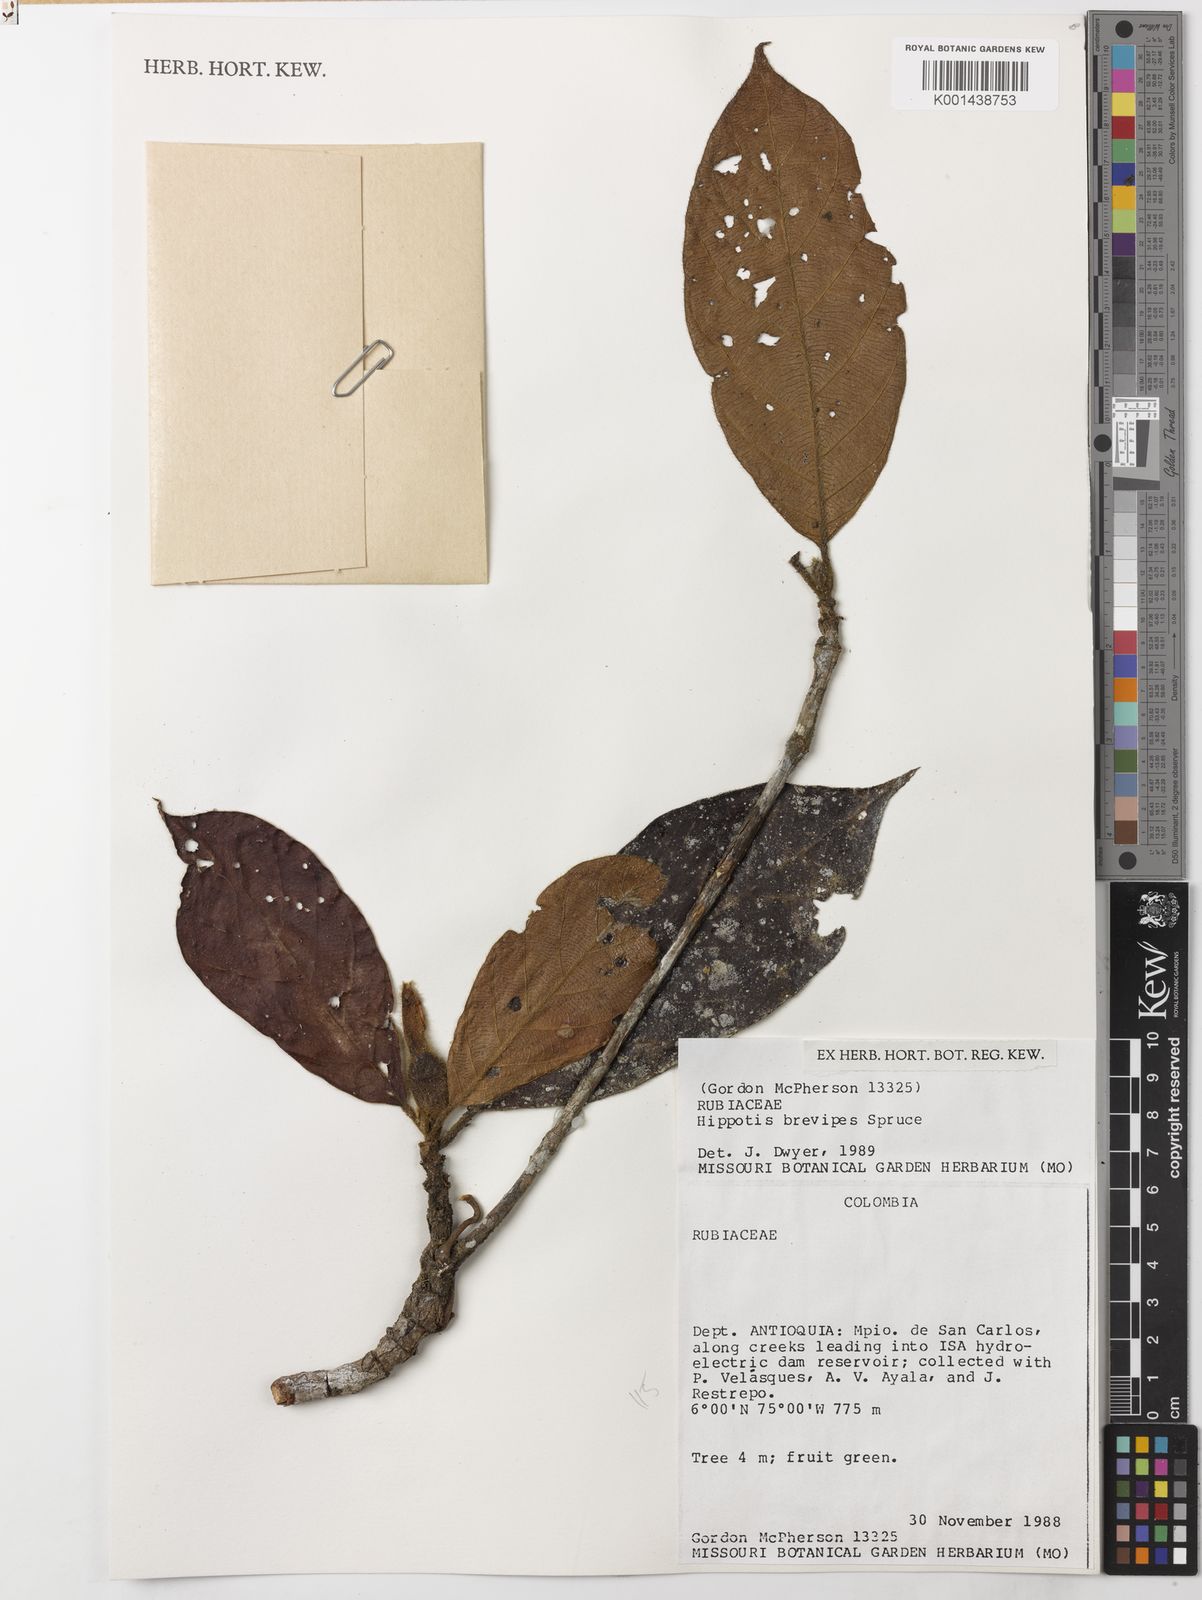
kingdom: Plantae
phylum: Tracheophyta
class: Magnoliopsida
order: Gentianales
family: Rubiaceae
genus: Hippotis
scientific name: Hippotis brevipes
